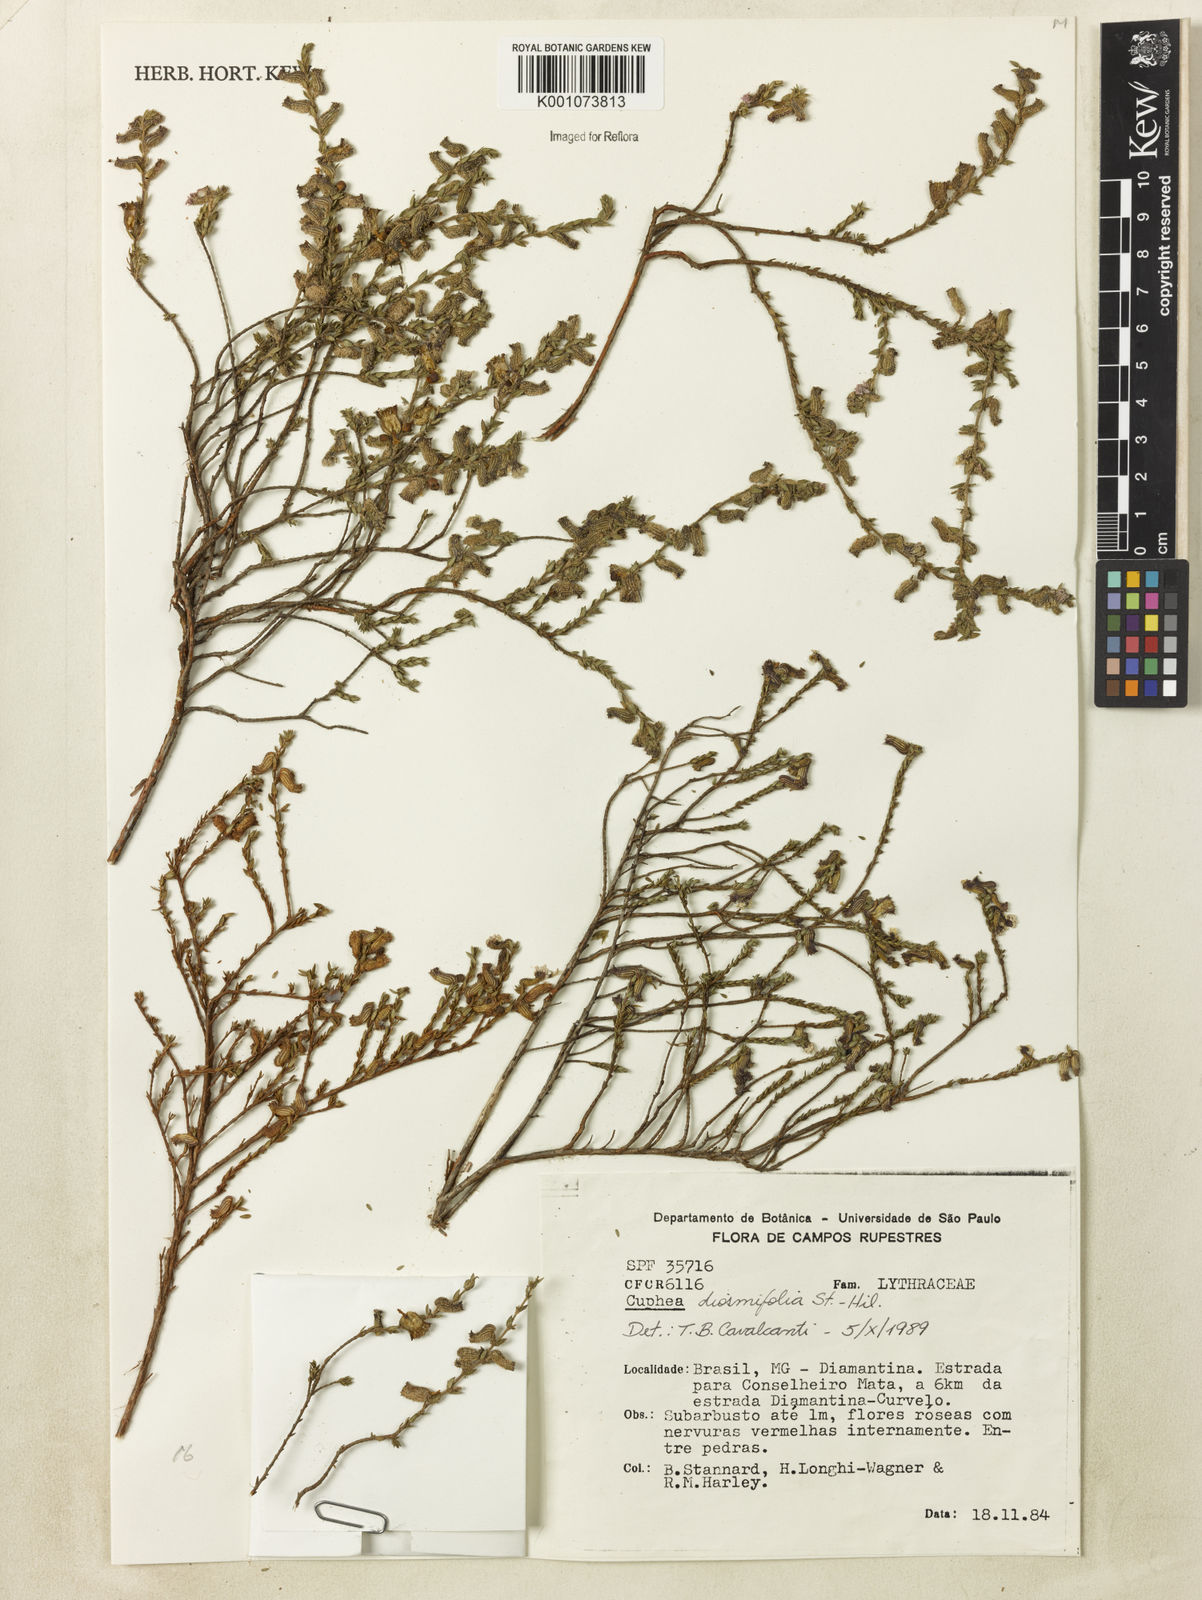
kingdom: Plantae
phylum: Tracheophyta
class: Magnoliopsida
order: Myrtales
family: Lythraceae
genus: Cuphea
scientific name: Cuphea diosmifolia
